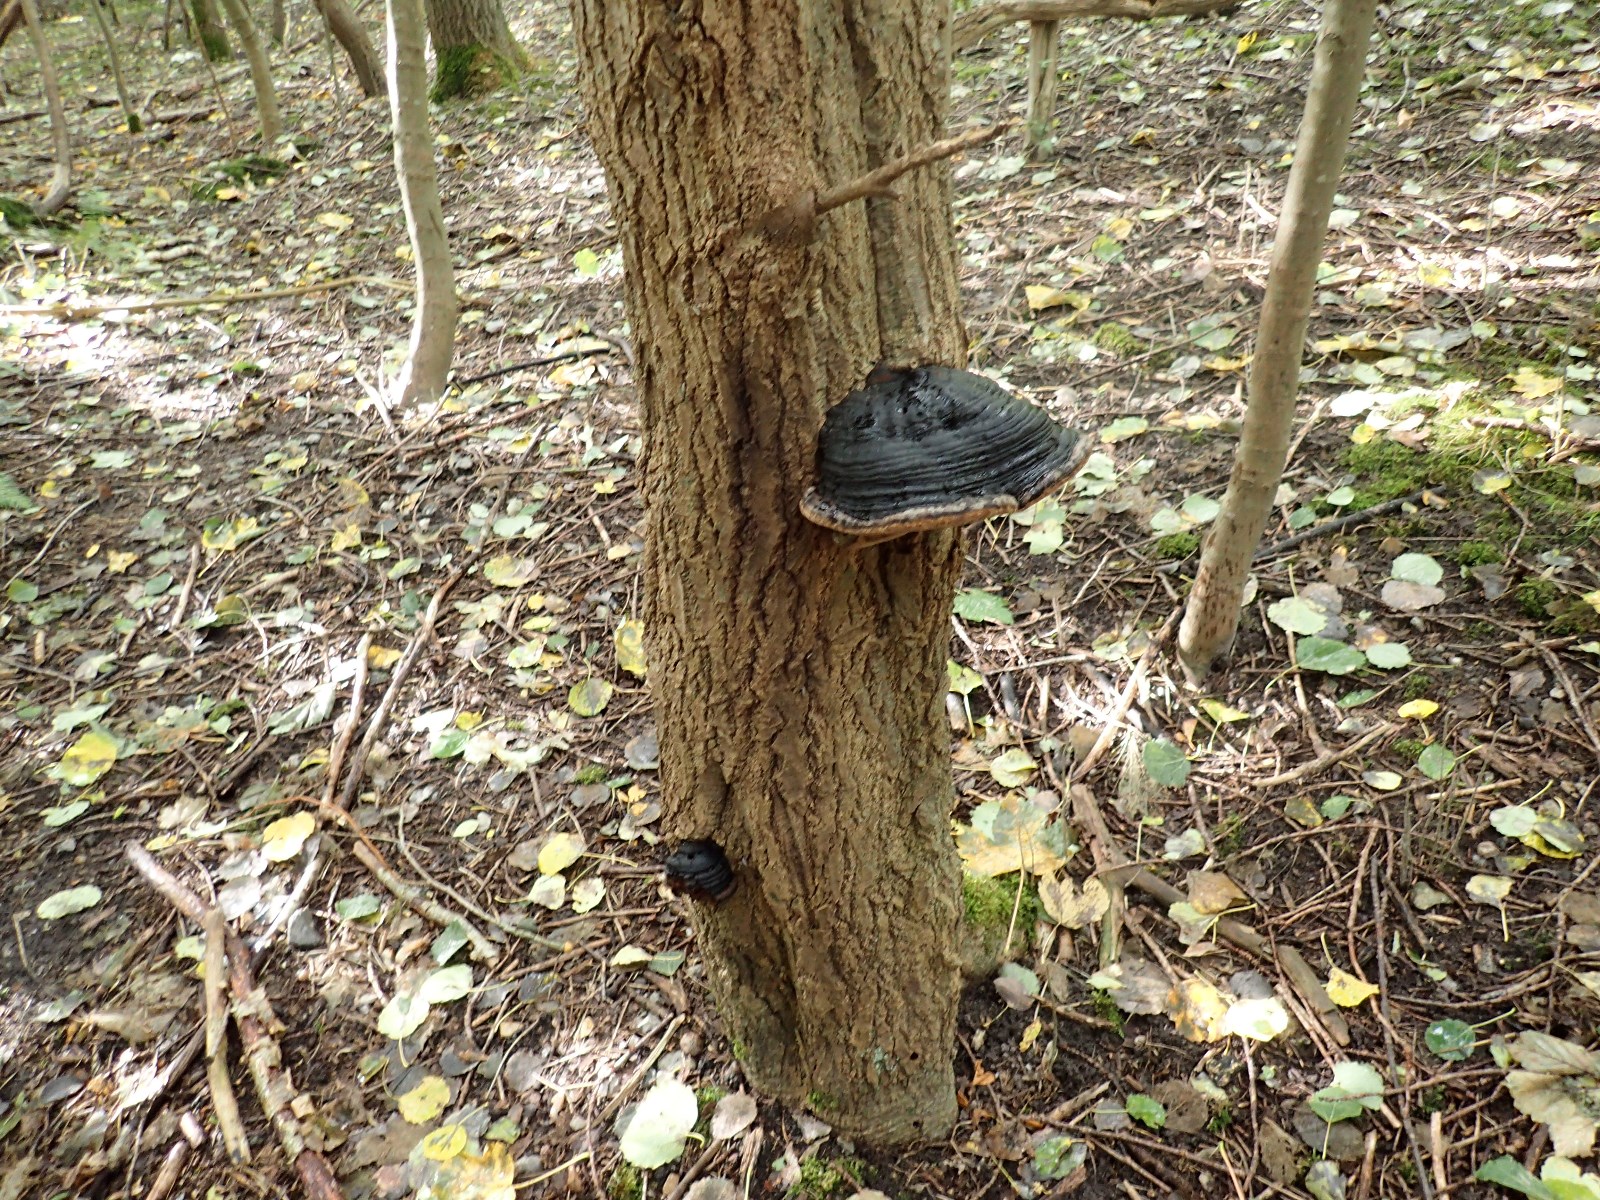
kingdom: Fungi
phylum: Basidiomycota
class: Agaricomycetes
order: Hymenochaetales
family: Hymenochaetaceae
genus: Phellinus
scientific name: Phellinus populicola
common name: poppel-ildporesvamp
